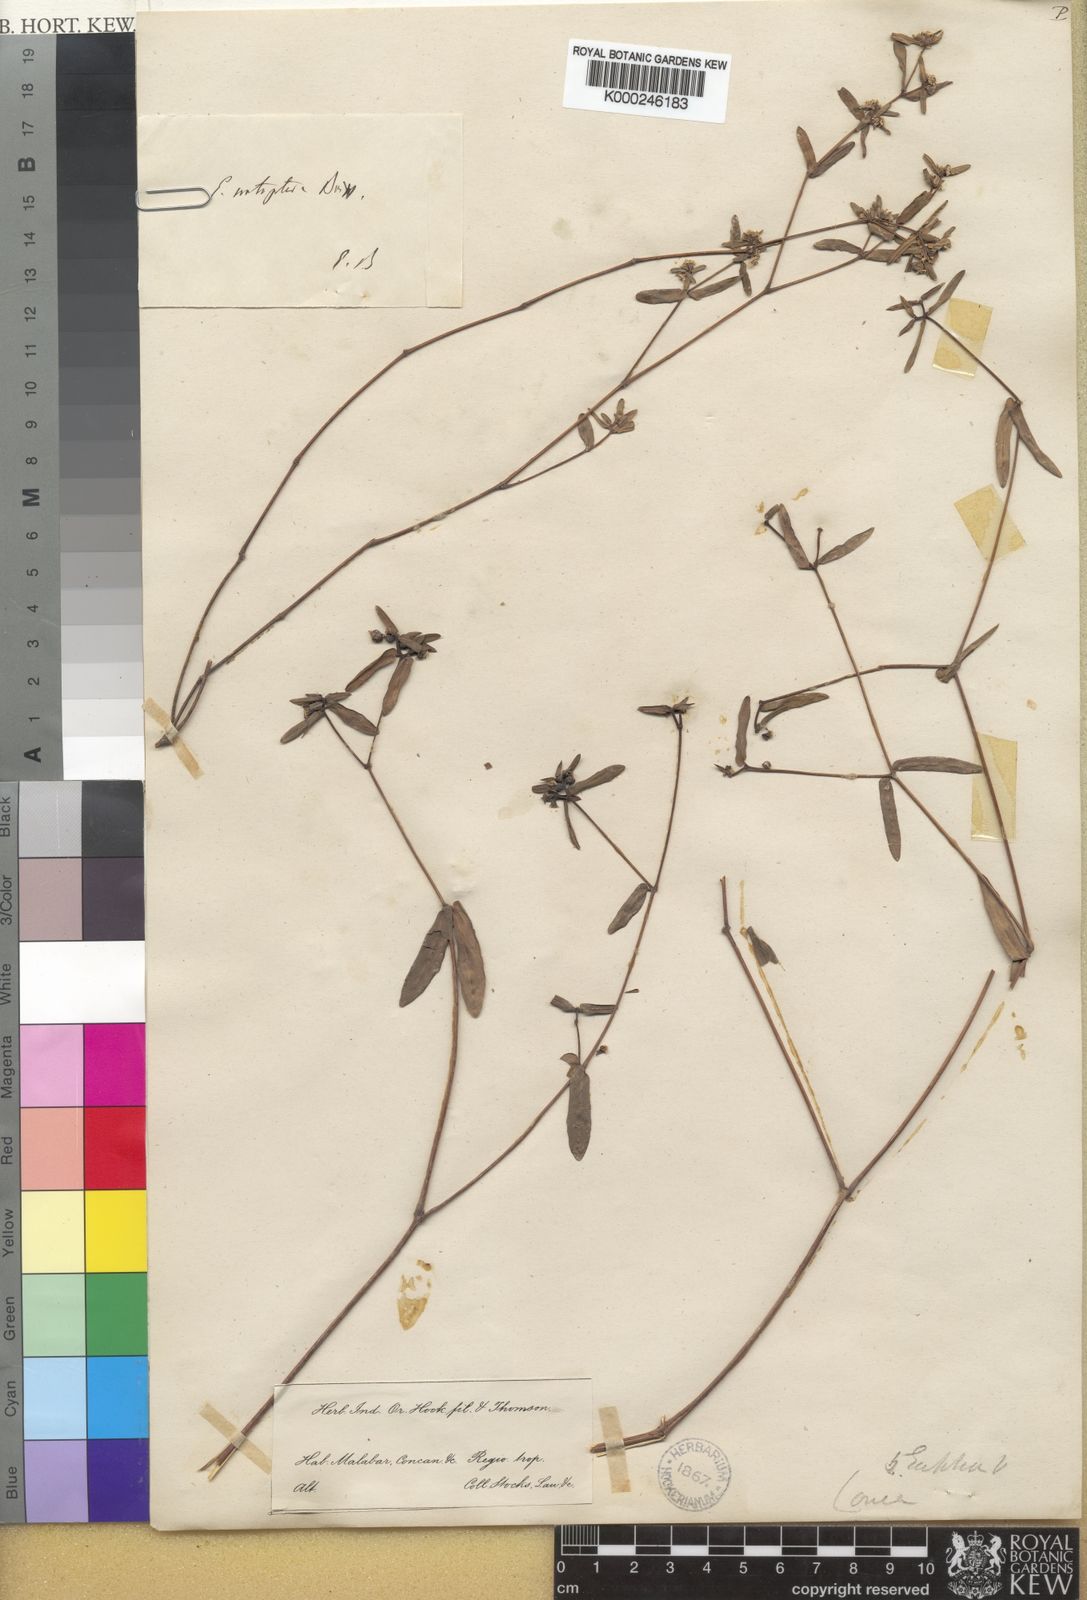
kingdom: Plantae
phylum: Tracheophyta
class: Magnoliopsida
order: Malpighiales
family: Euphorbiaceae
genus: Euphorbia
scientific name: Euphorbia notoptera
